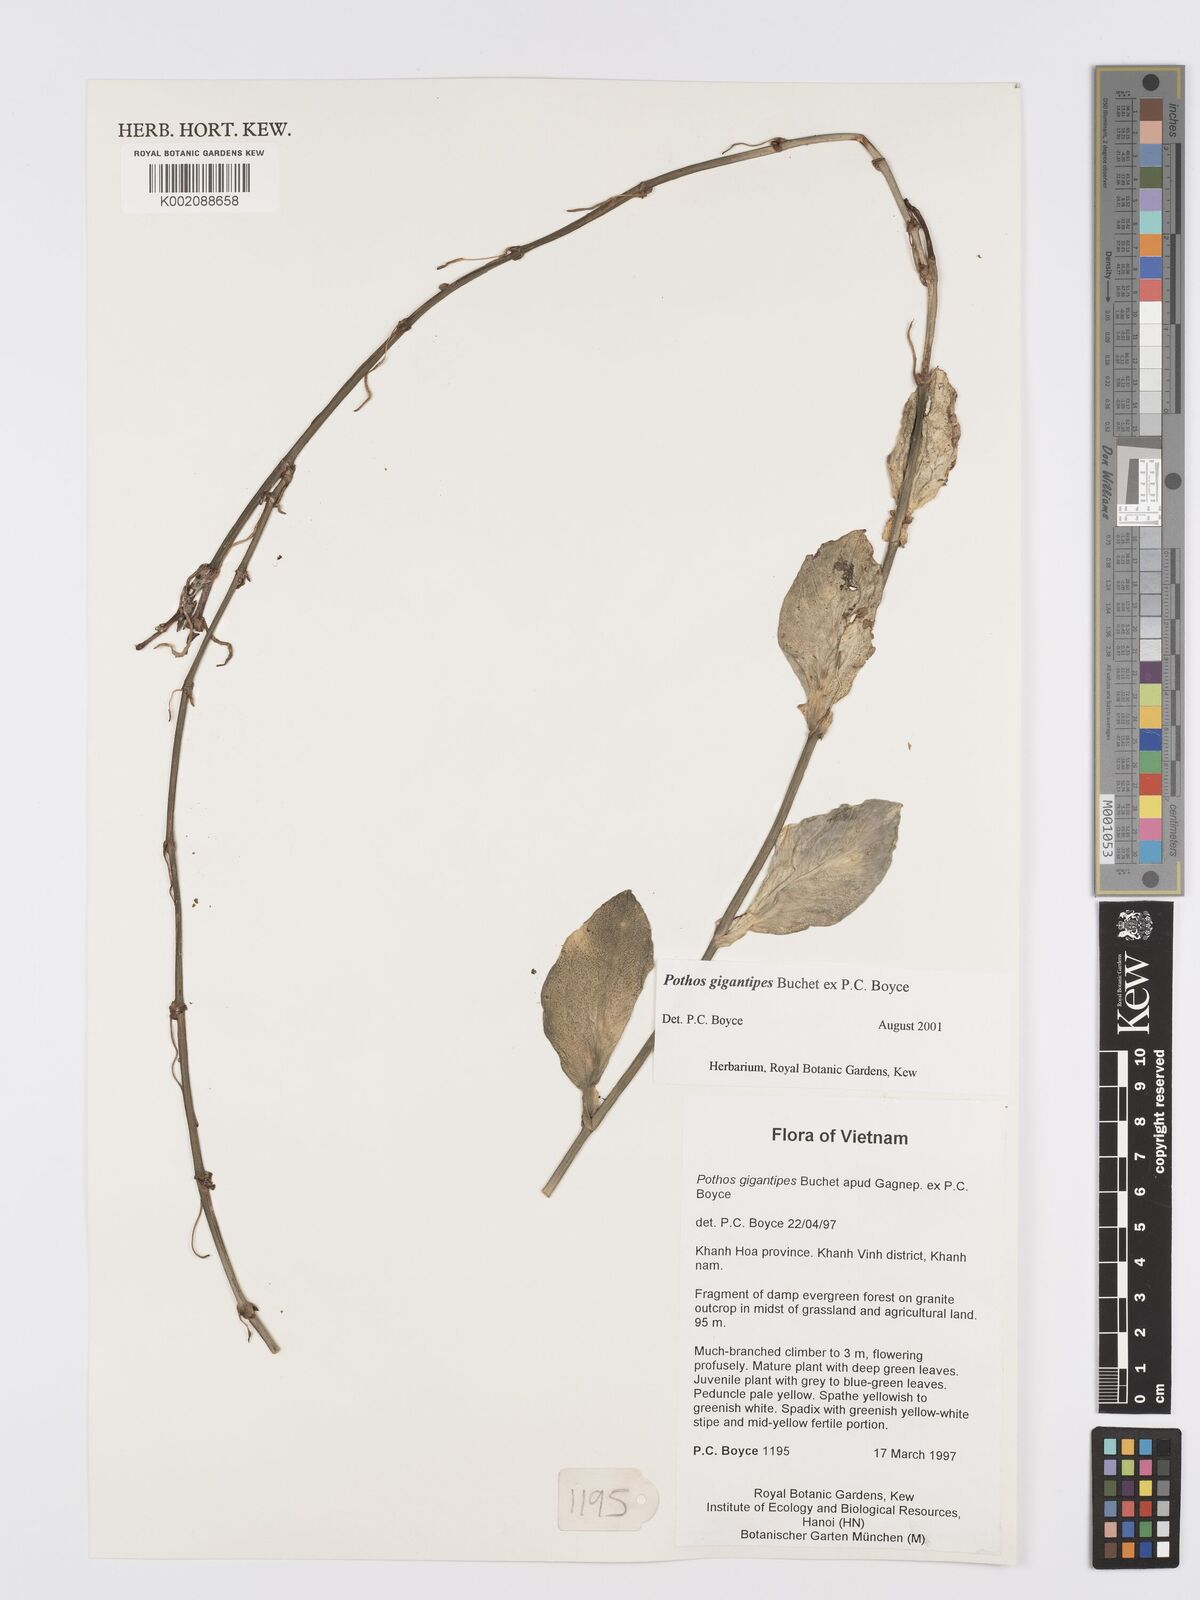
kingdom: Plantae
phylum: Tracheophyta
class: Liliopsida
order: Alismatales
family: Araceae
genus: Pothos
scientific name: Pothos gigantipes
